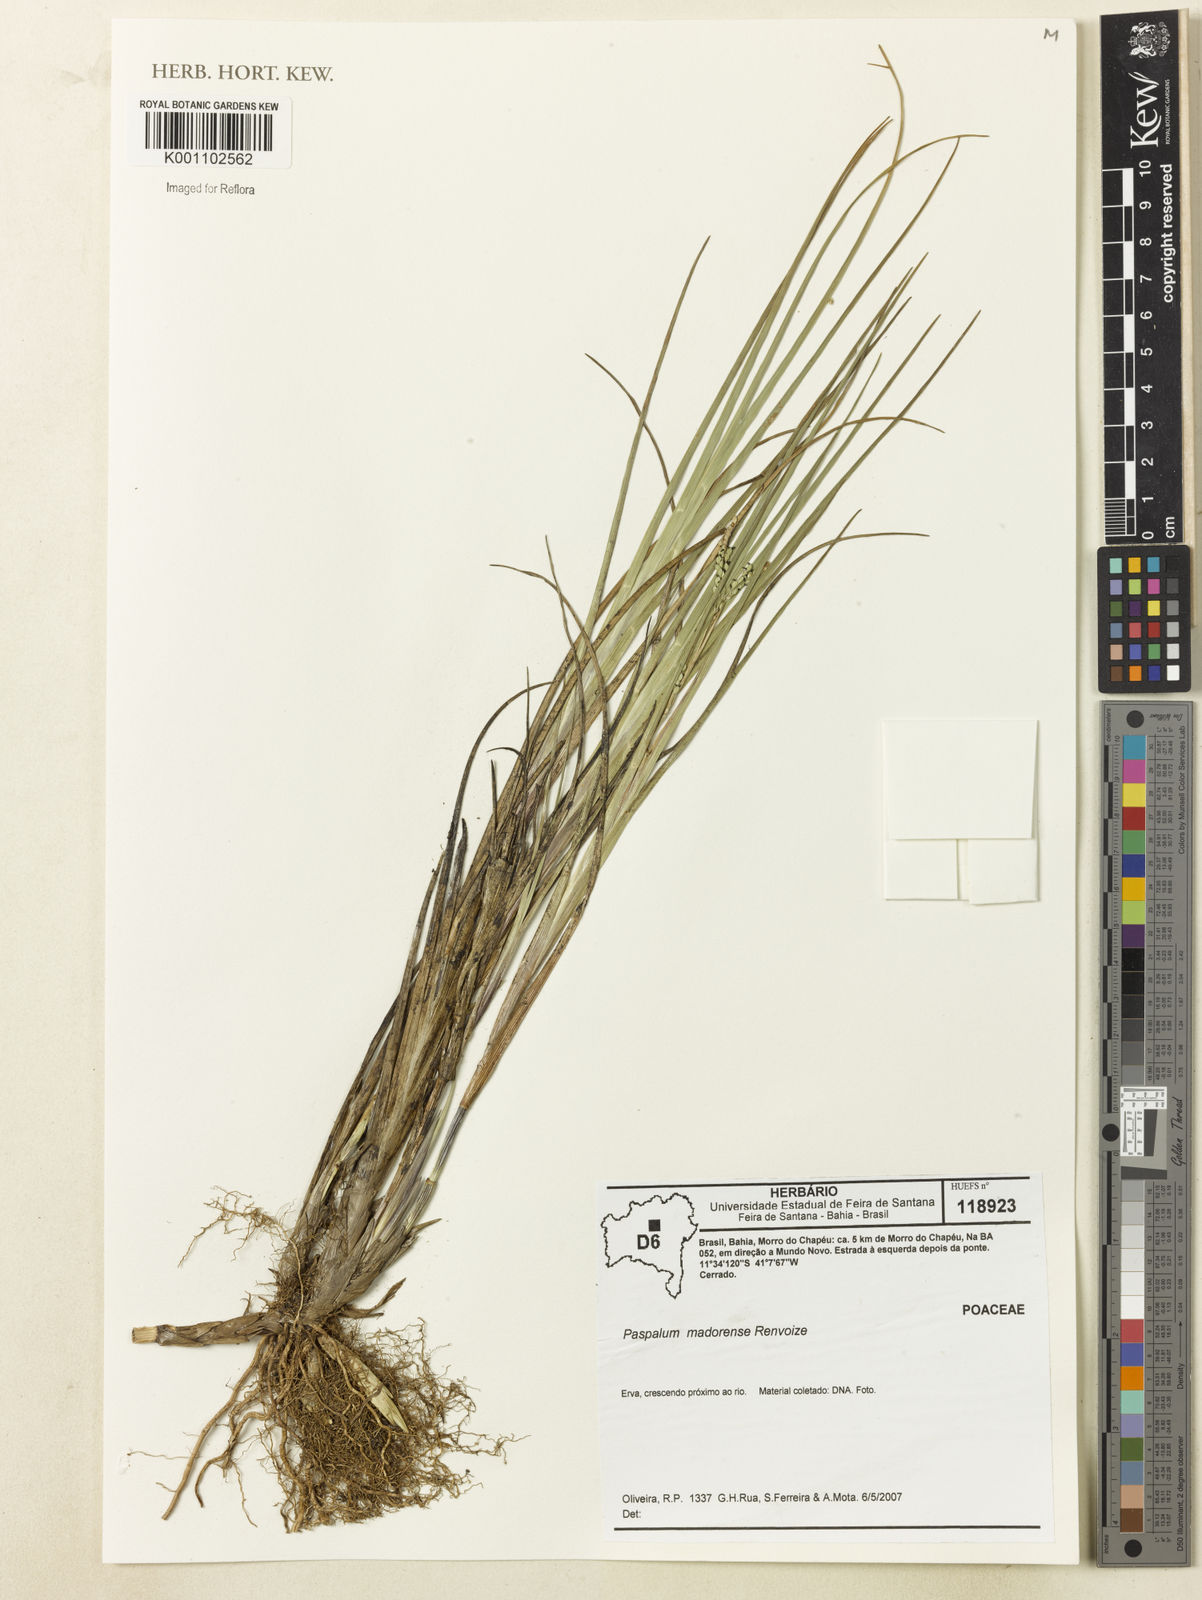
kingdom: Plantae
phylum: Tracheophyta
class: Liliopsida
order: Poales
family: Poaceae
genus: Paspalum
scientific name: Paspalum madorense
